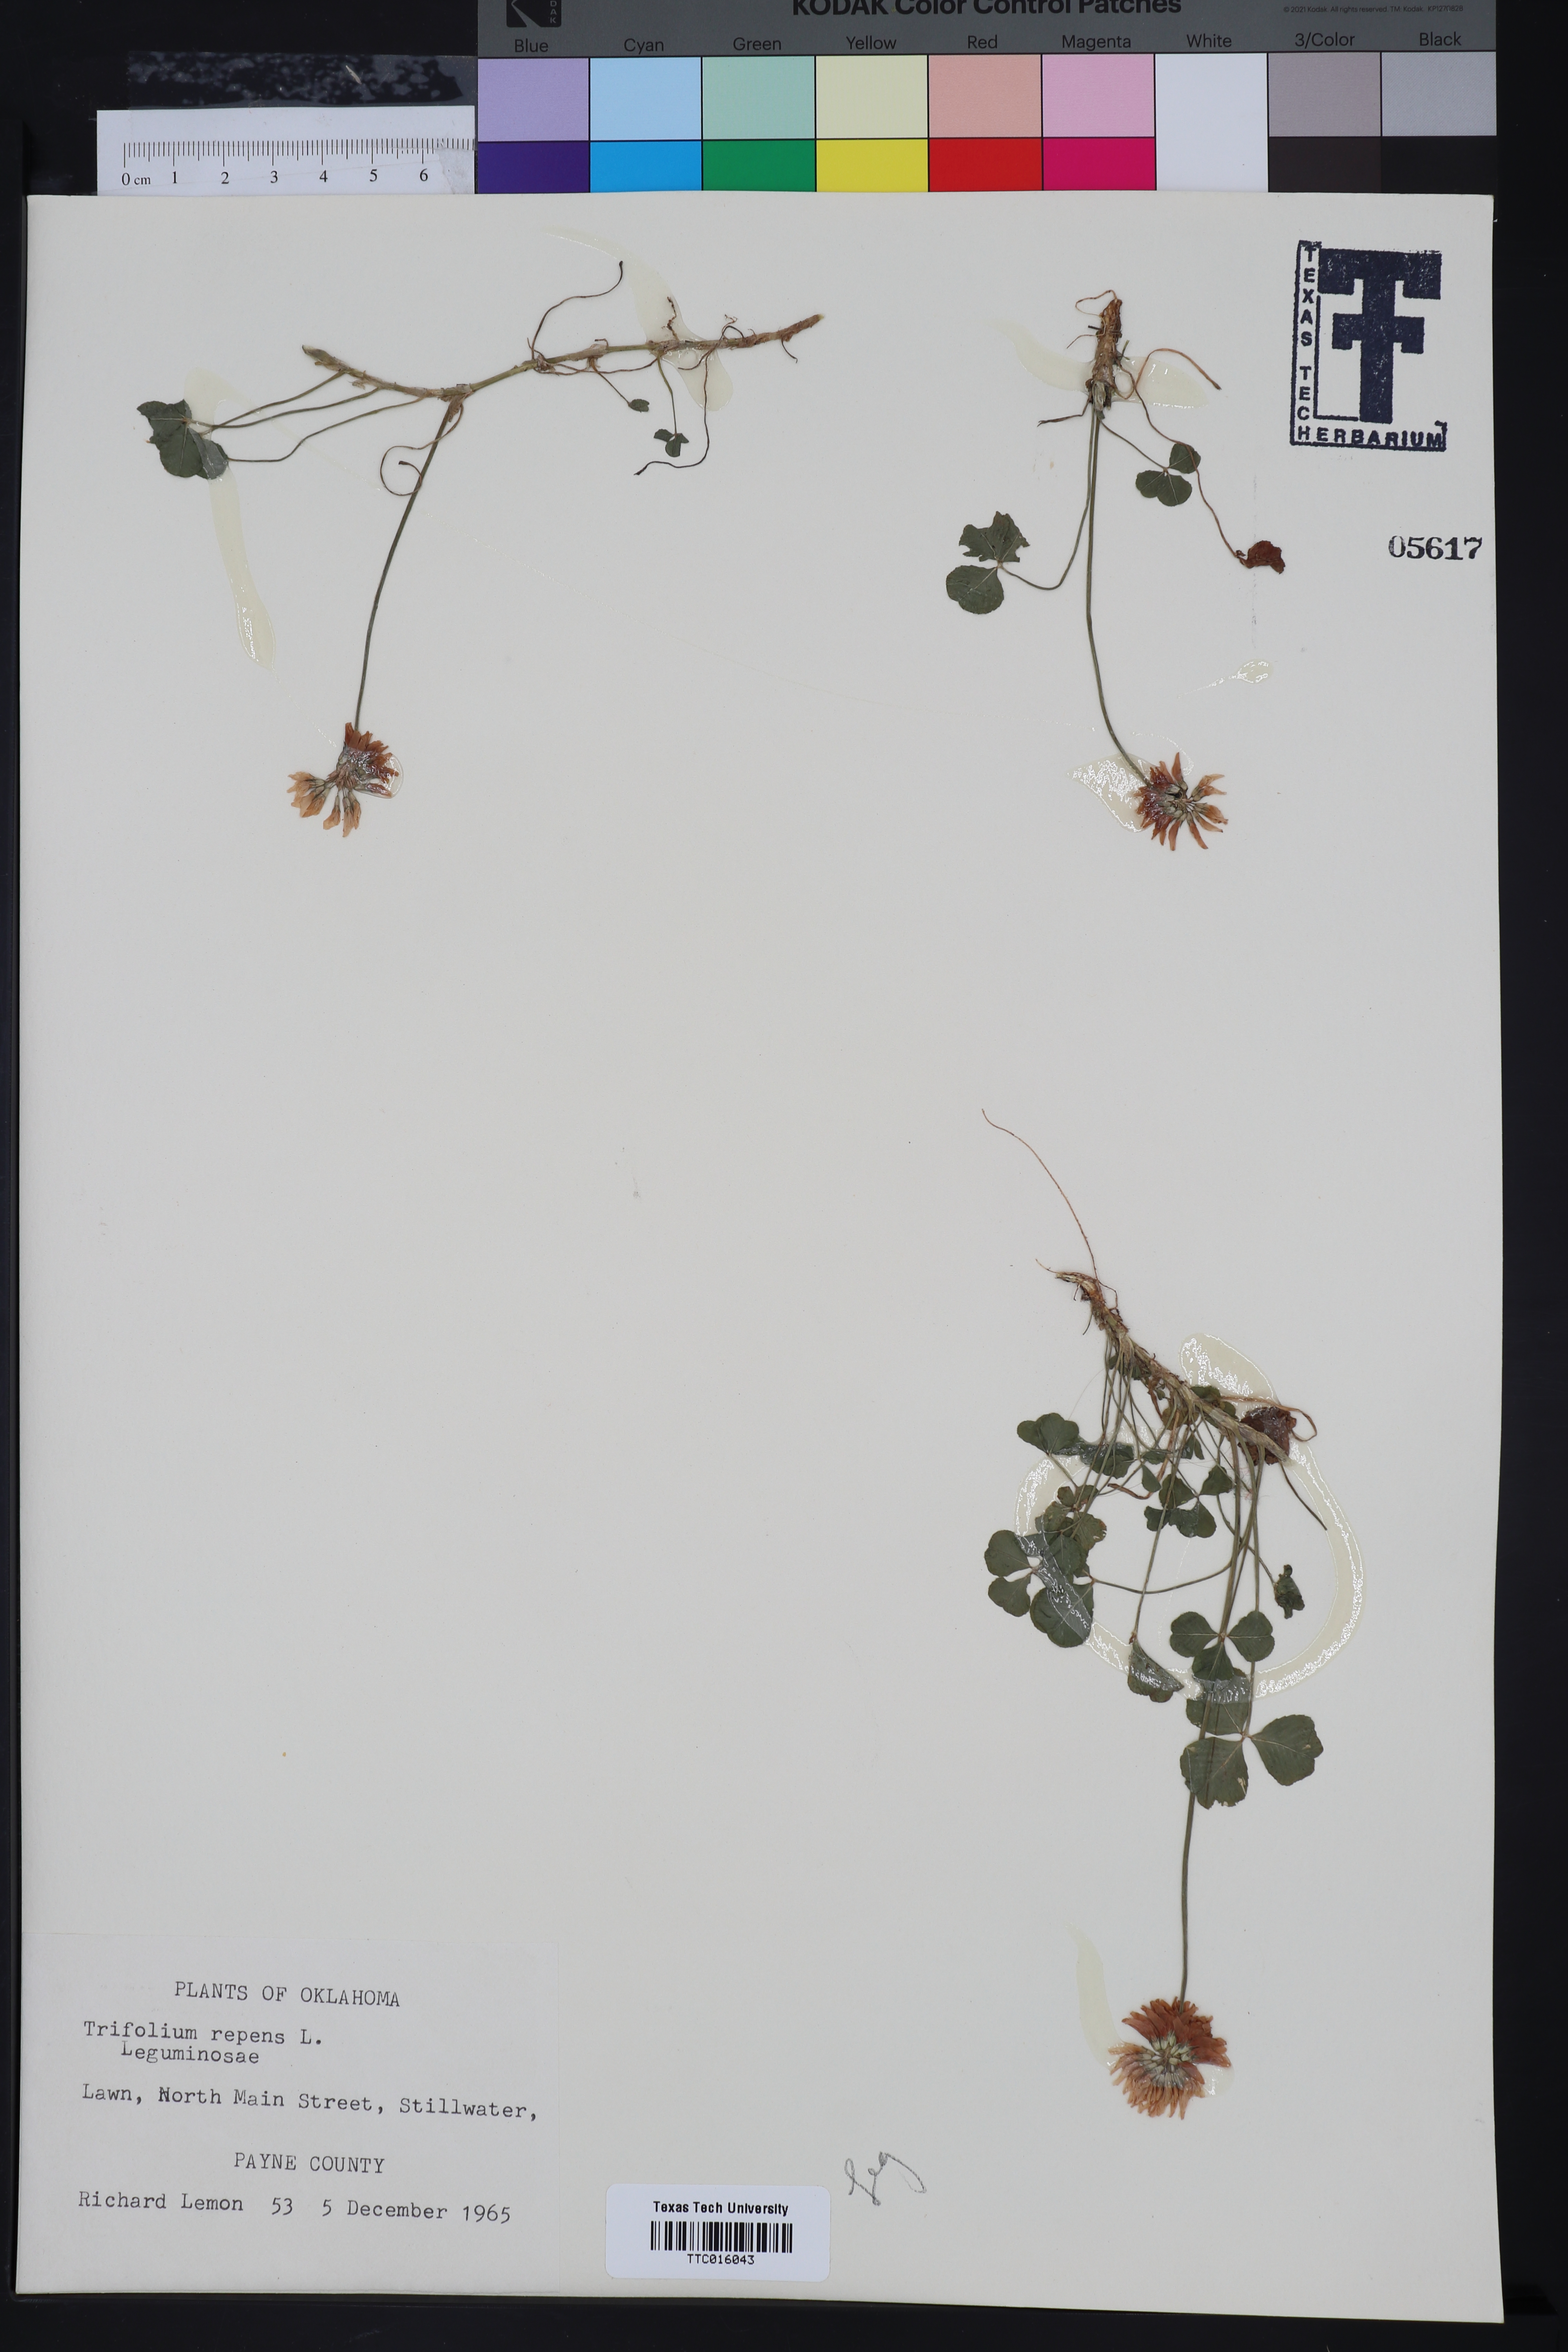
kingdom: Plantae
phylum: Tracheophyta
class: Magnoliopsida
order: Fabales
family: Fabaceae
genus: Trifolium
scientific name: Trifolium repens
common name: White clover
